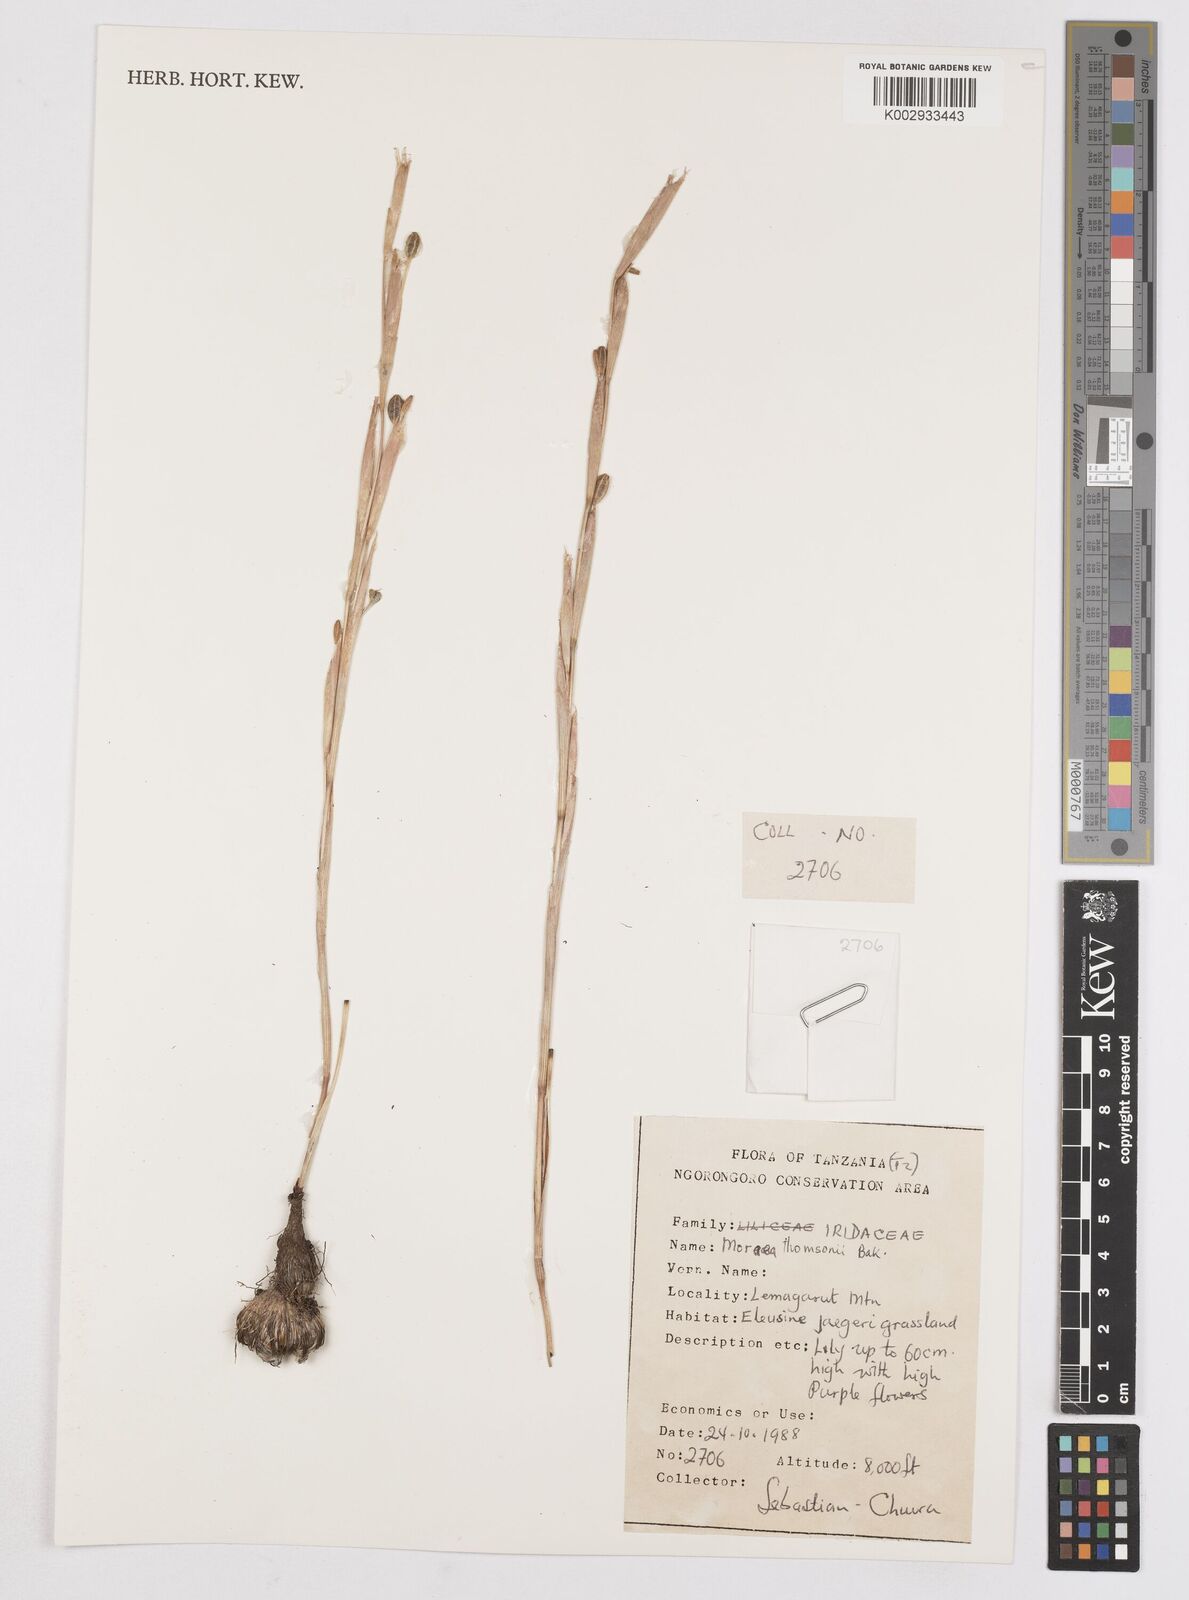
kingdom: Plantae
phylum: Tracheophyta
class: Liliopsida
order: Asparagales
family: Iridaceae
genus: Moraea
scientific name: Moraea stricta
